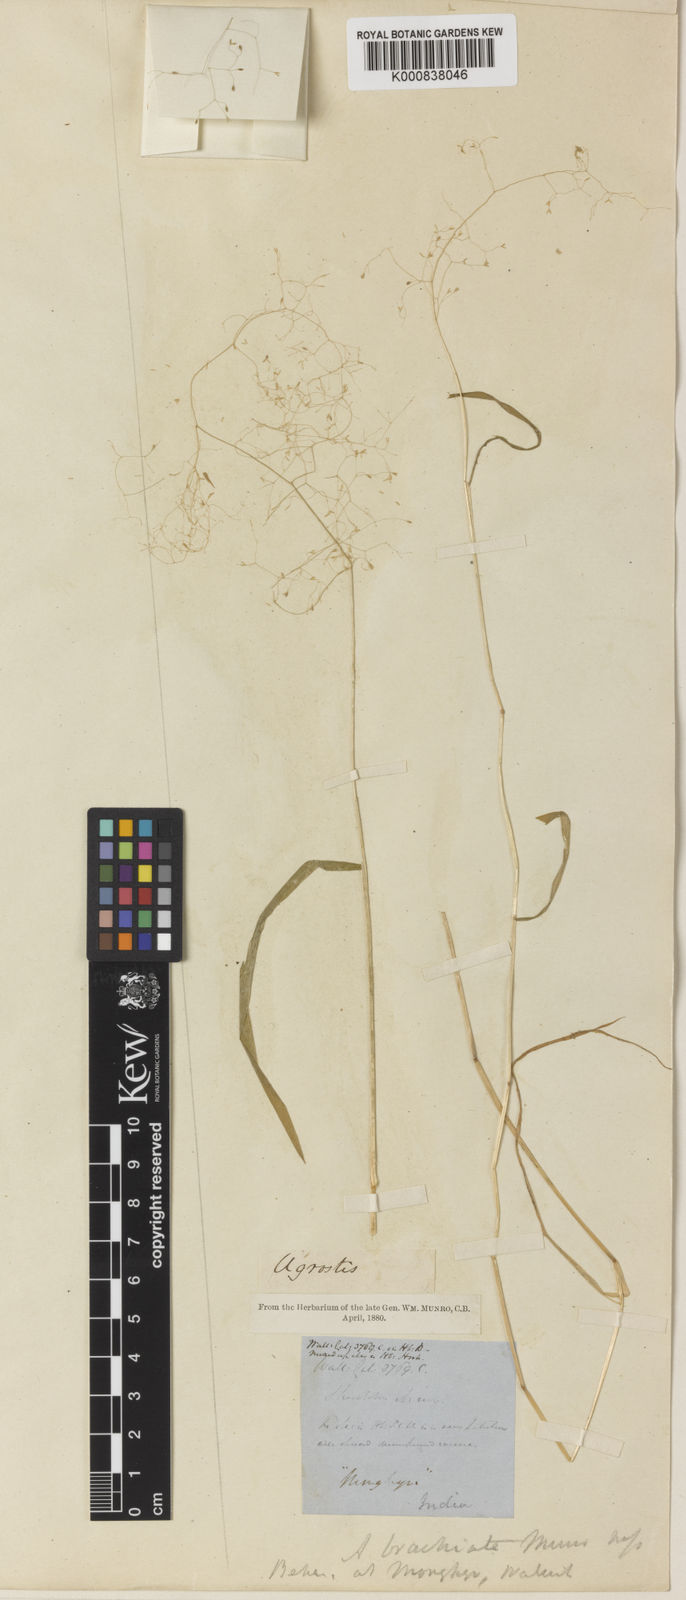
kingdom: Plantae
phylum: Tracheophyta
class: Liliopsida
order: Poales
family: Poaceae
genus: Agrostis
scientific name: Agrostis brachiata
